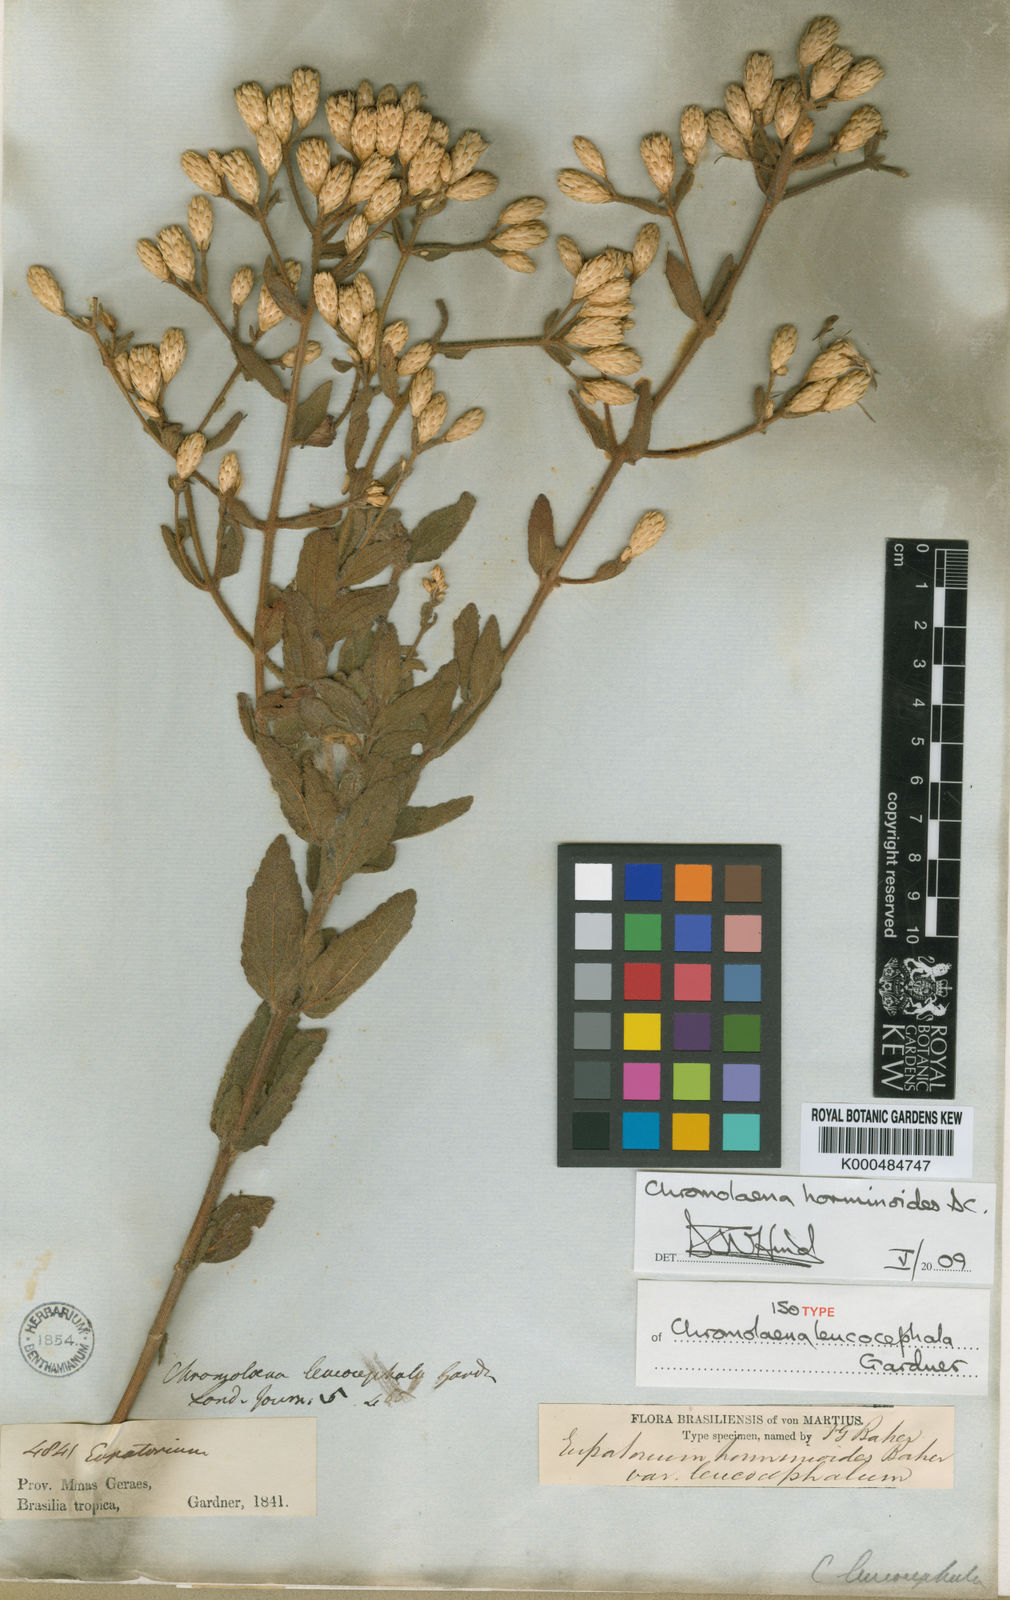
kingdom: Plantae
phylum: Tracheophyta
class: Magnoliopsida
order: Asterales
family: Asteraceae
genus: Chromolaena
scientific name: Chromolaena horminoides
